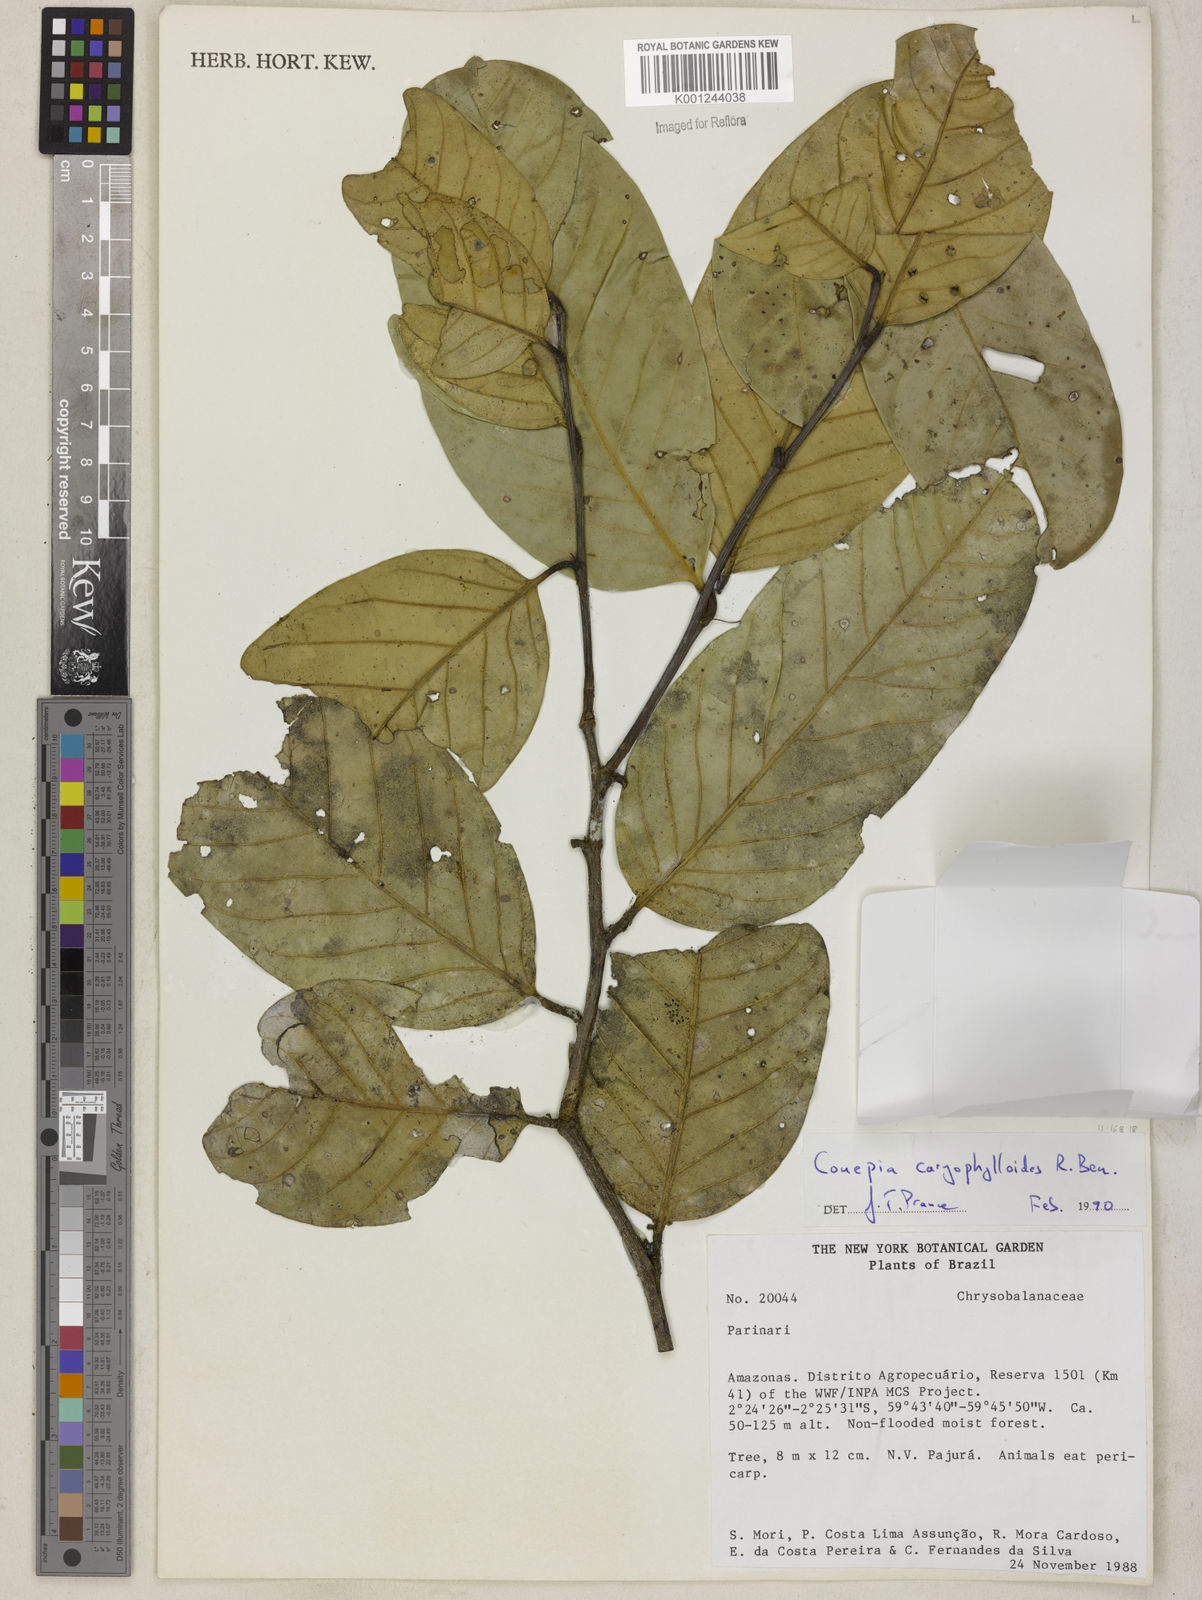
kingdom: Plantae
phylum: Tracheophyta
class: Magnoliopsida
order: Malpighiales
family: Chrysobalanaceae
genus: Couepia
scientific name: Couepia caryophylloides
